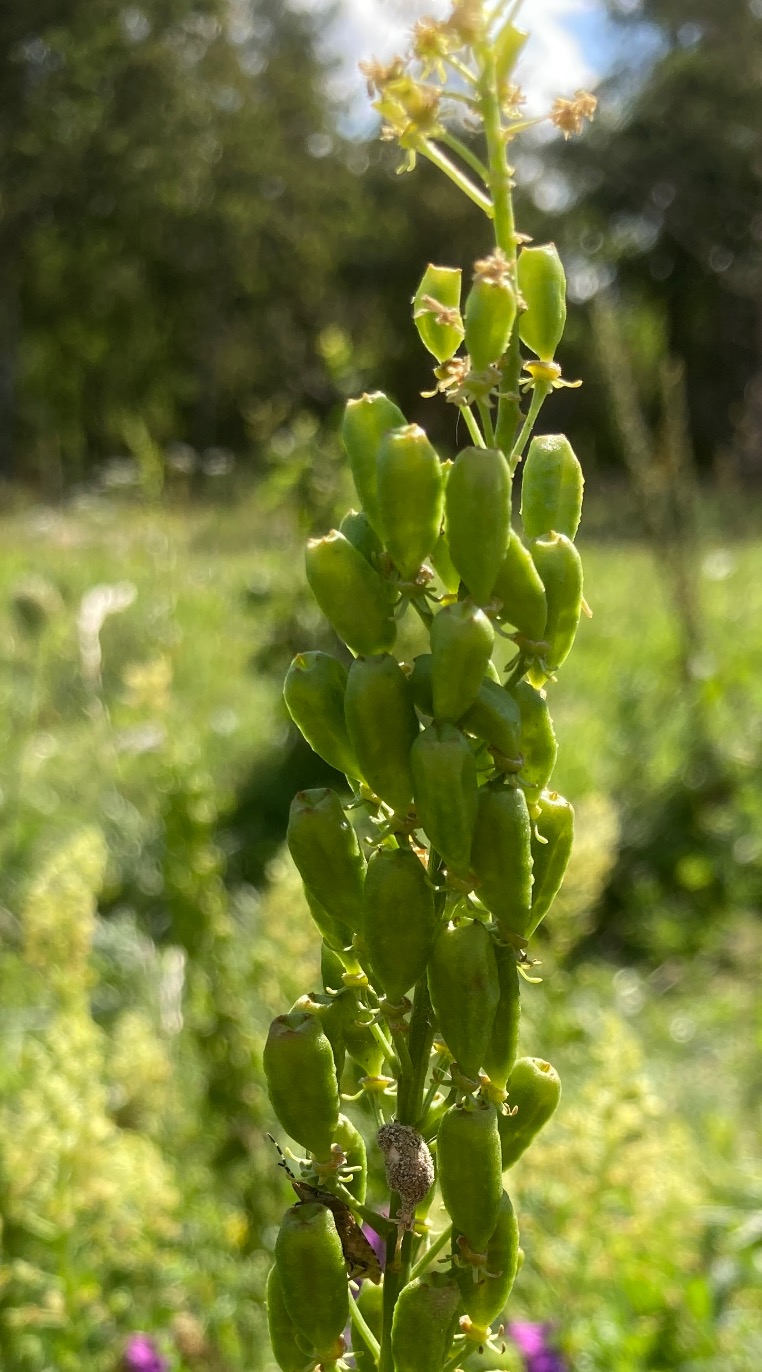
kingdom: Plantae
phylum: Tracheophyta
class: Magnoliopsida
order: Brassicales
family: Resedaceae
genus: Reseda
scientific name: Reseda lutea
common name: Gul reseda
